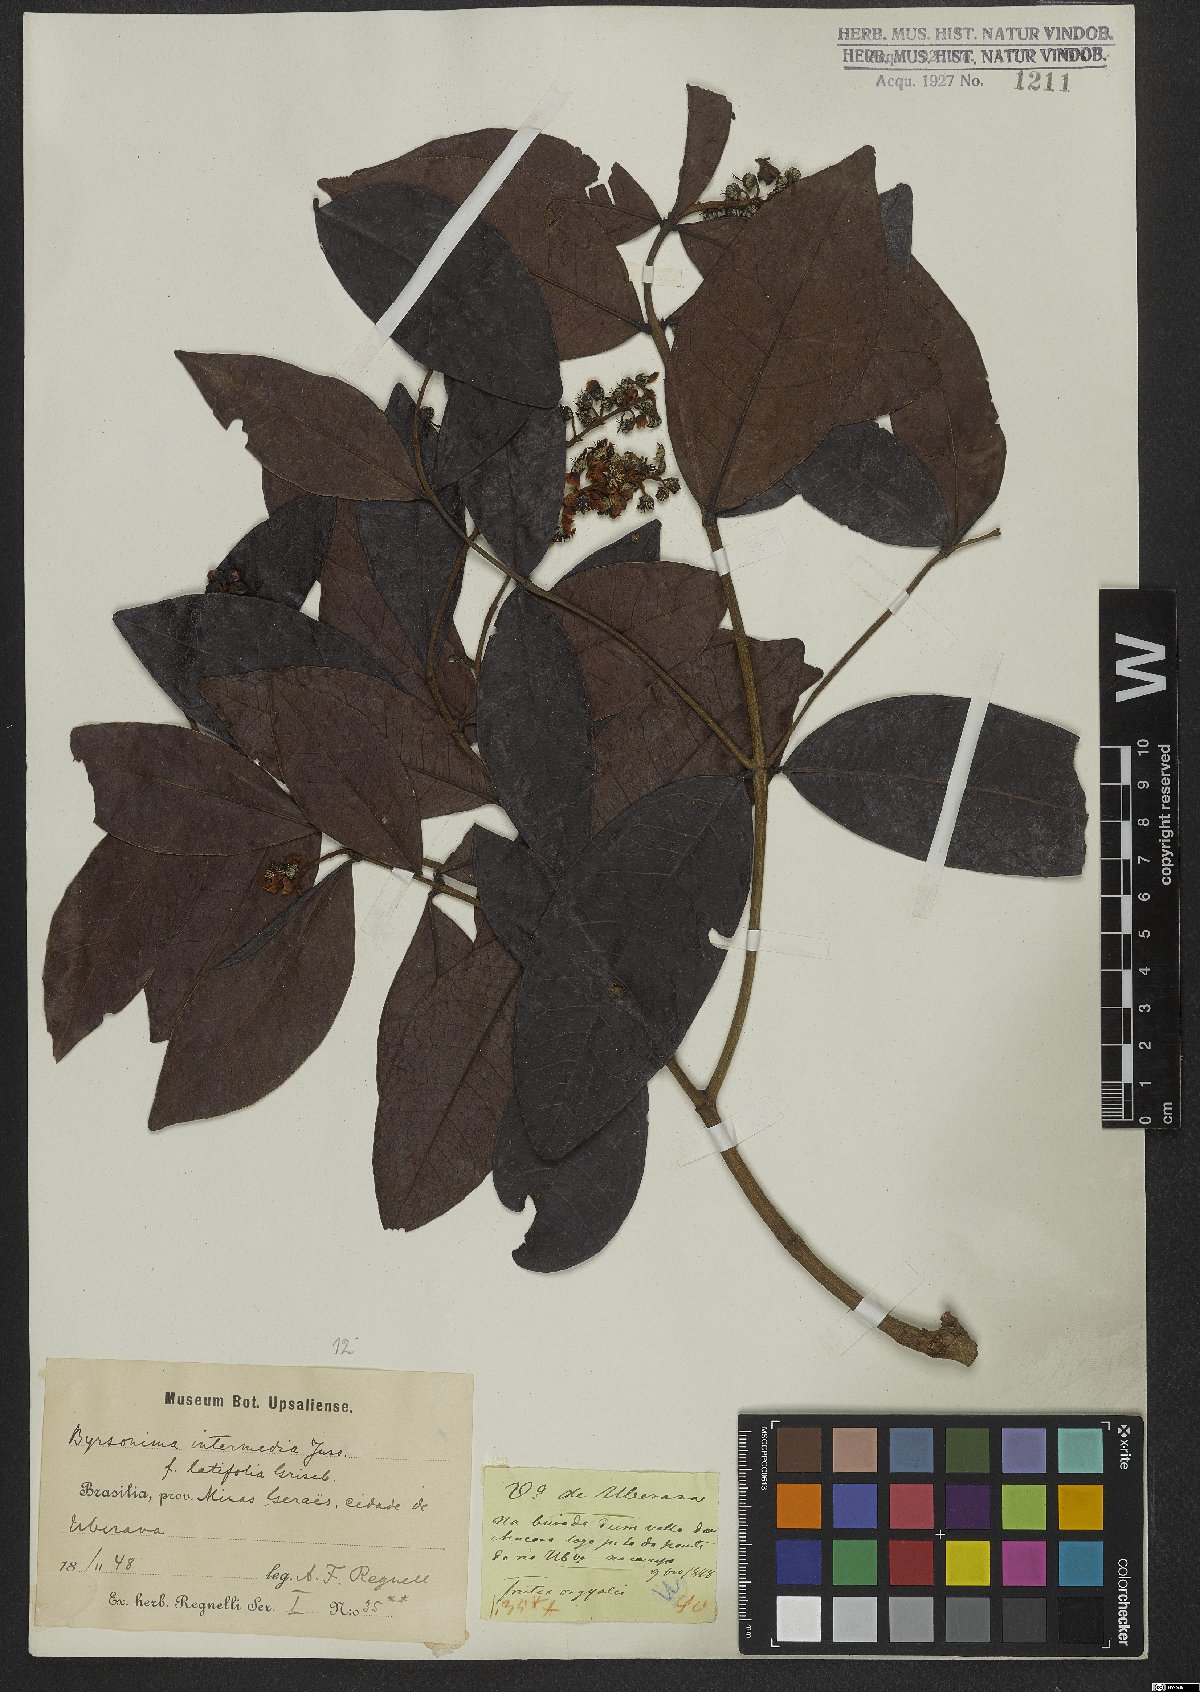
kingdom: Plantae
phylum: Tracheophyta
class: Magnoliopsida
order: Malpighiales
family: Malpighiaceae
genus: Byrsonima
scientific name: Byrsonima intermedia
